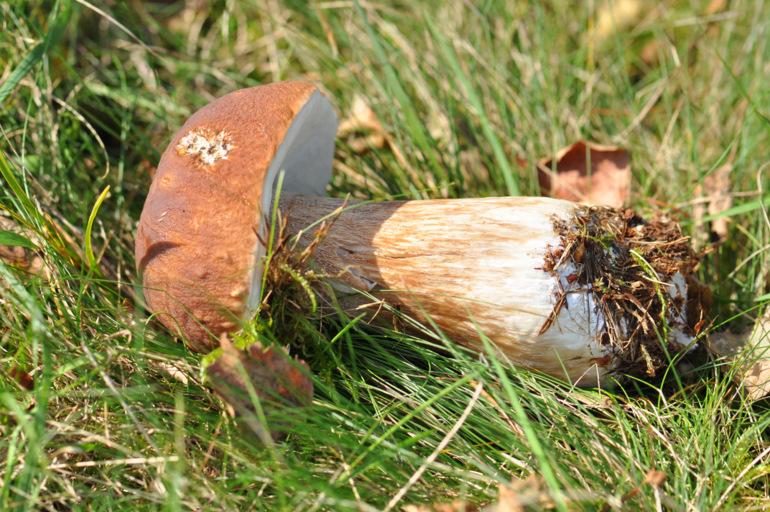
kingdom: Fungi
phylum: Basidiomycota
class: Agaricomycetes
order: Boletales
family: Boletaceae
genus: Boletus
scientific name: Boletus edulis
